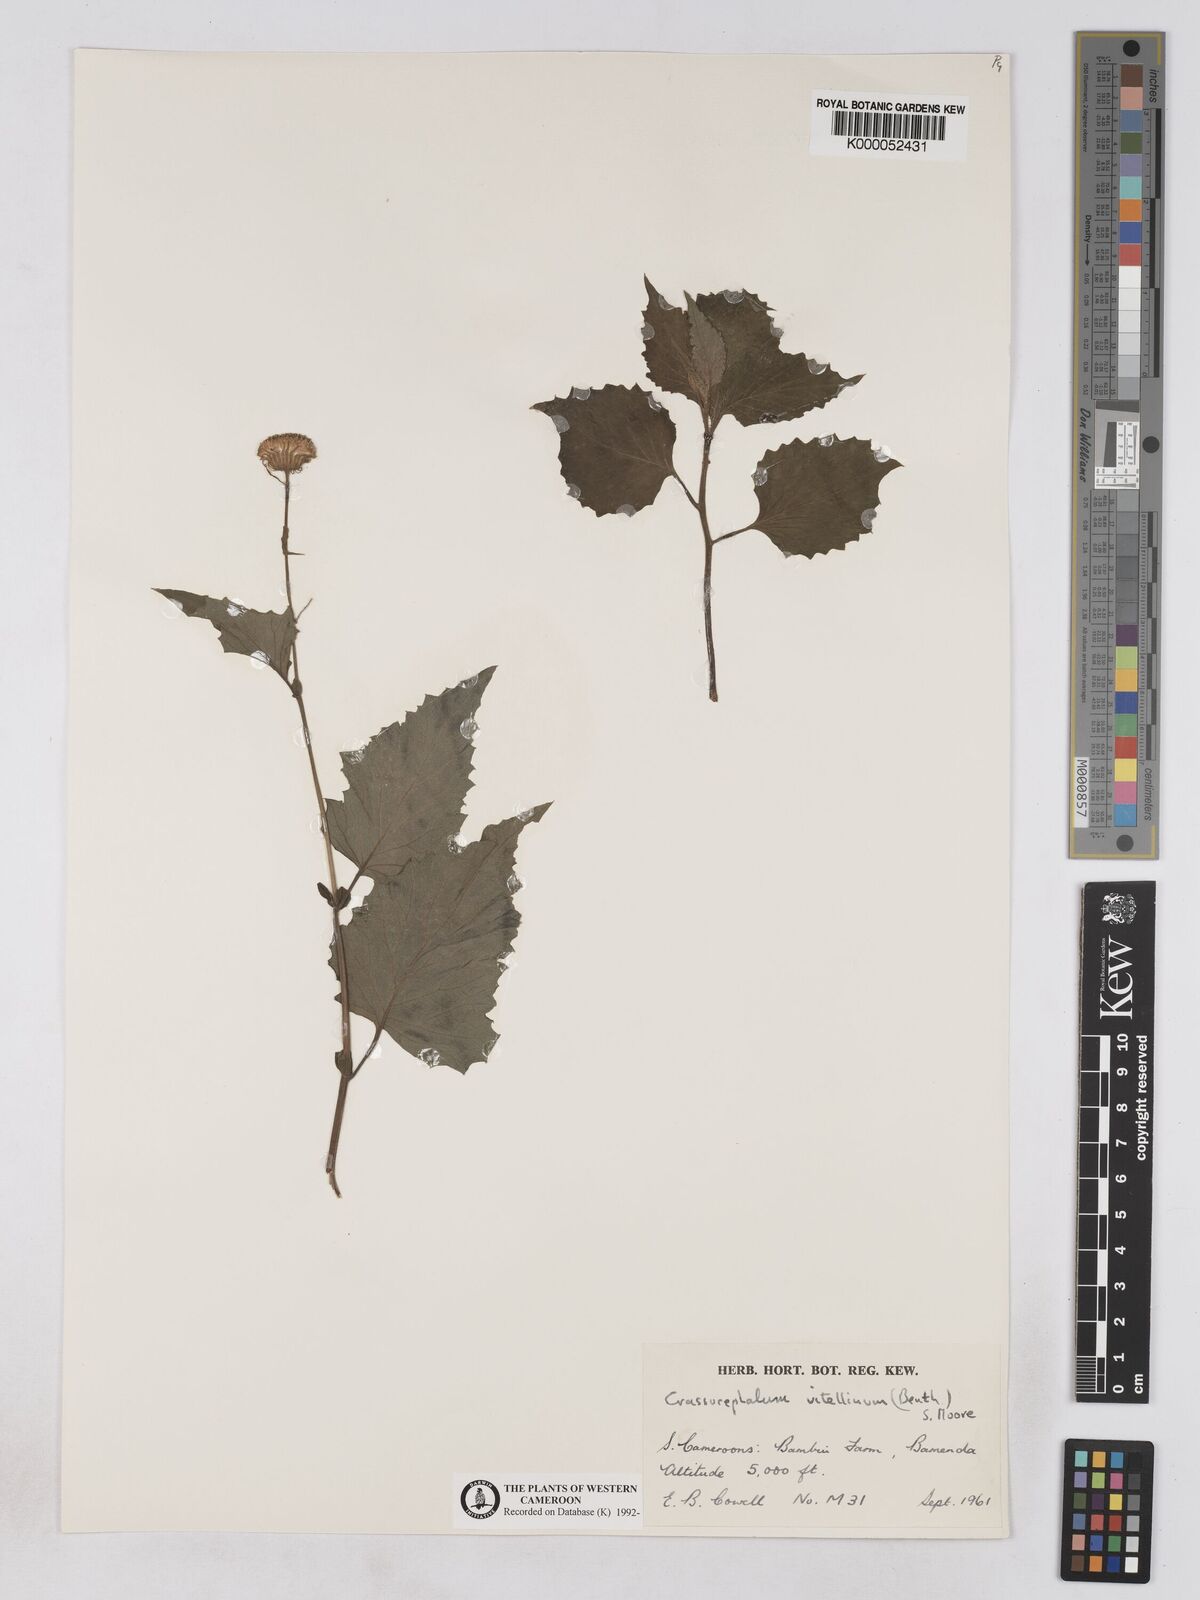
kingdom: Plantae
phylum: Tracheophyta
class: Magnoliopsida
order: Asterales
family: Asteraceae
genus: Crassocephalum
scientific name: Crassocephalum vitellinum
